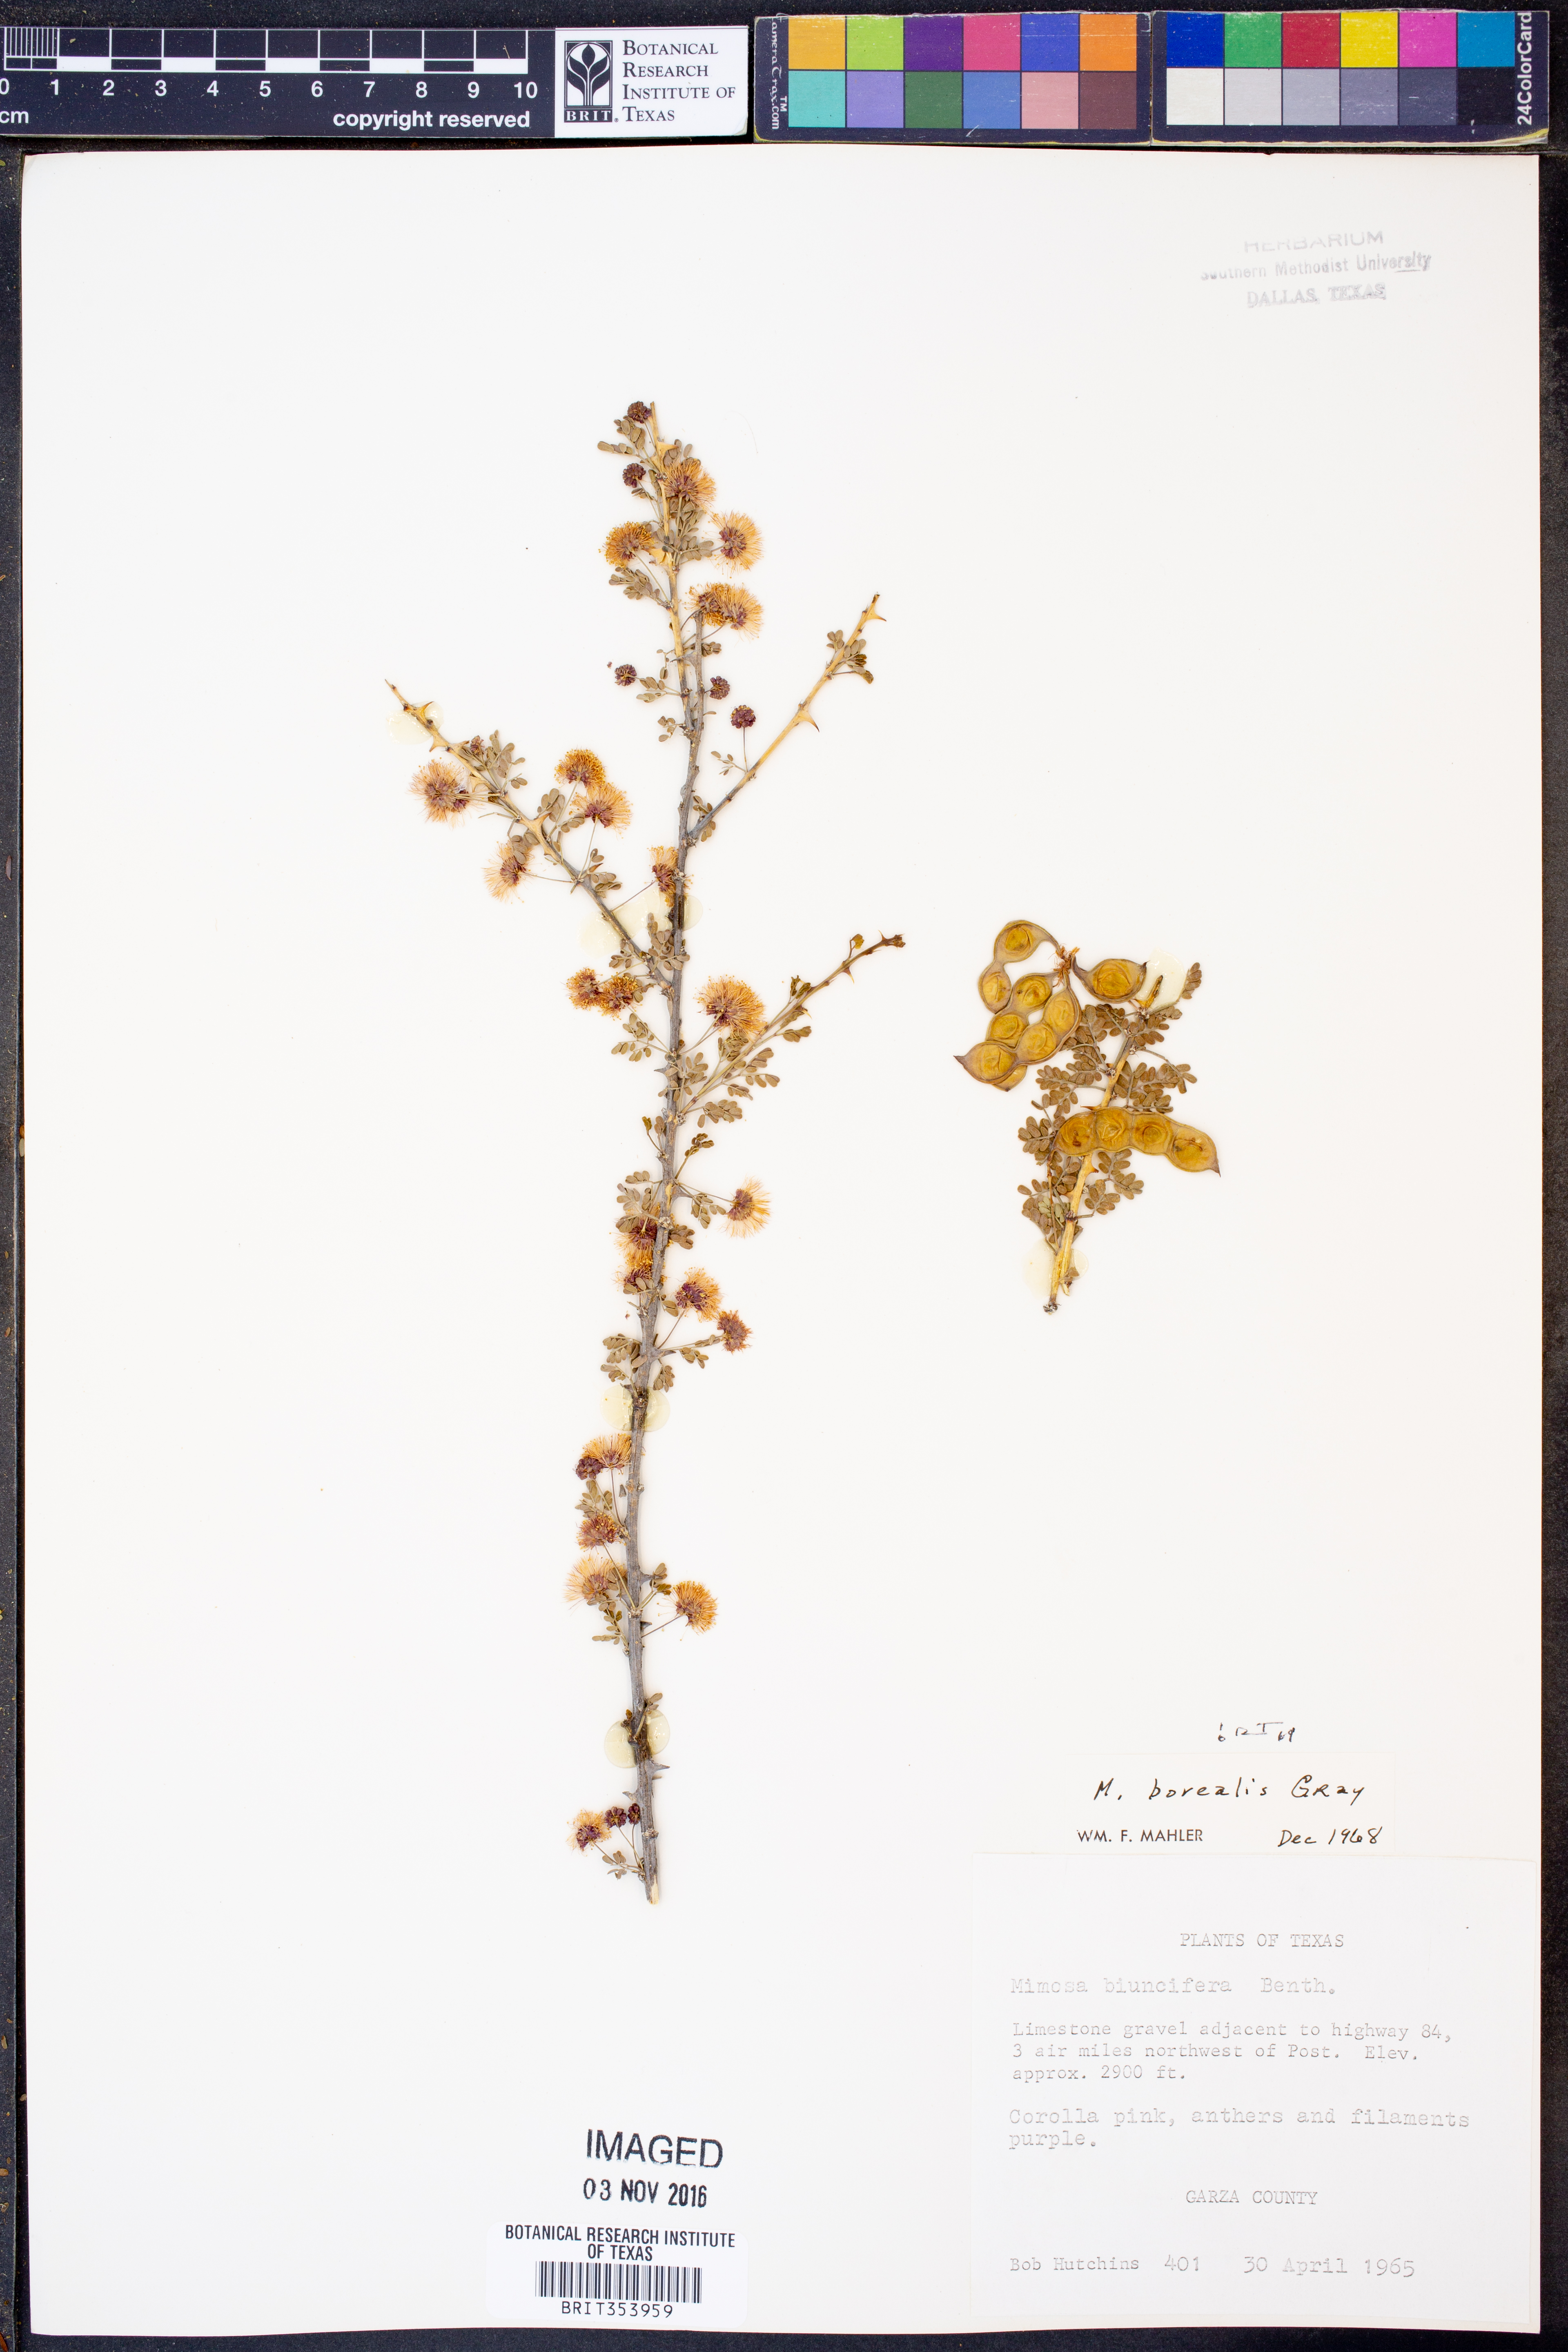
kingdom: Plantae
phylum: Tracheophyta
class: Magnoliopsida
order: Fabales
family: Fabaceae
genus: Mimosa
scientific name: Mimosa borealis
